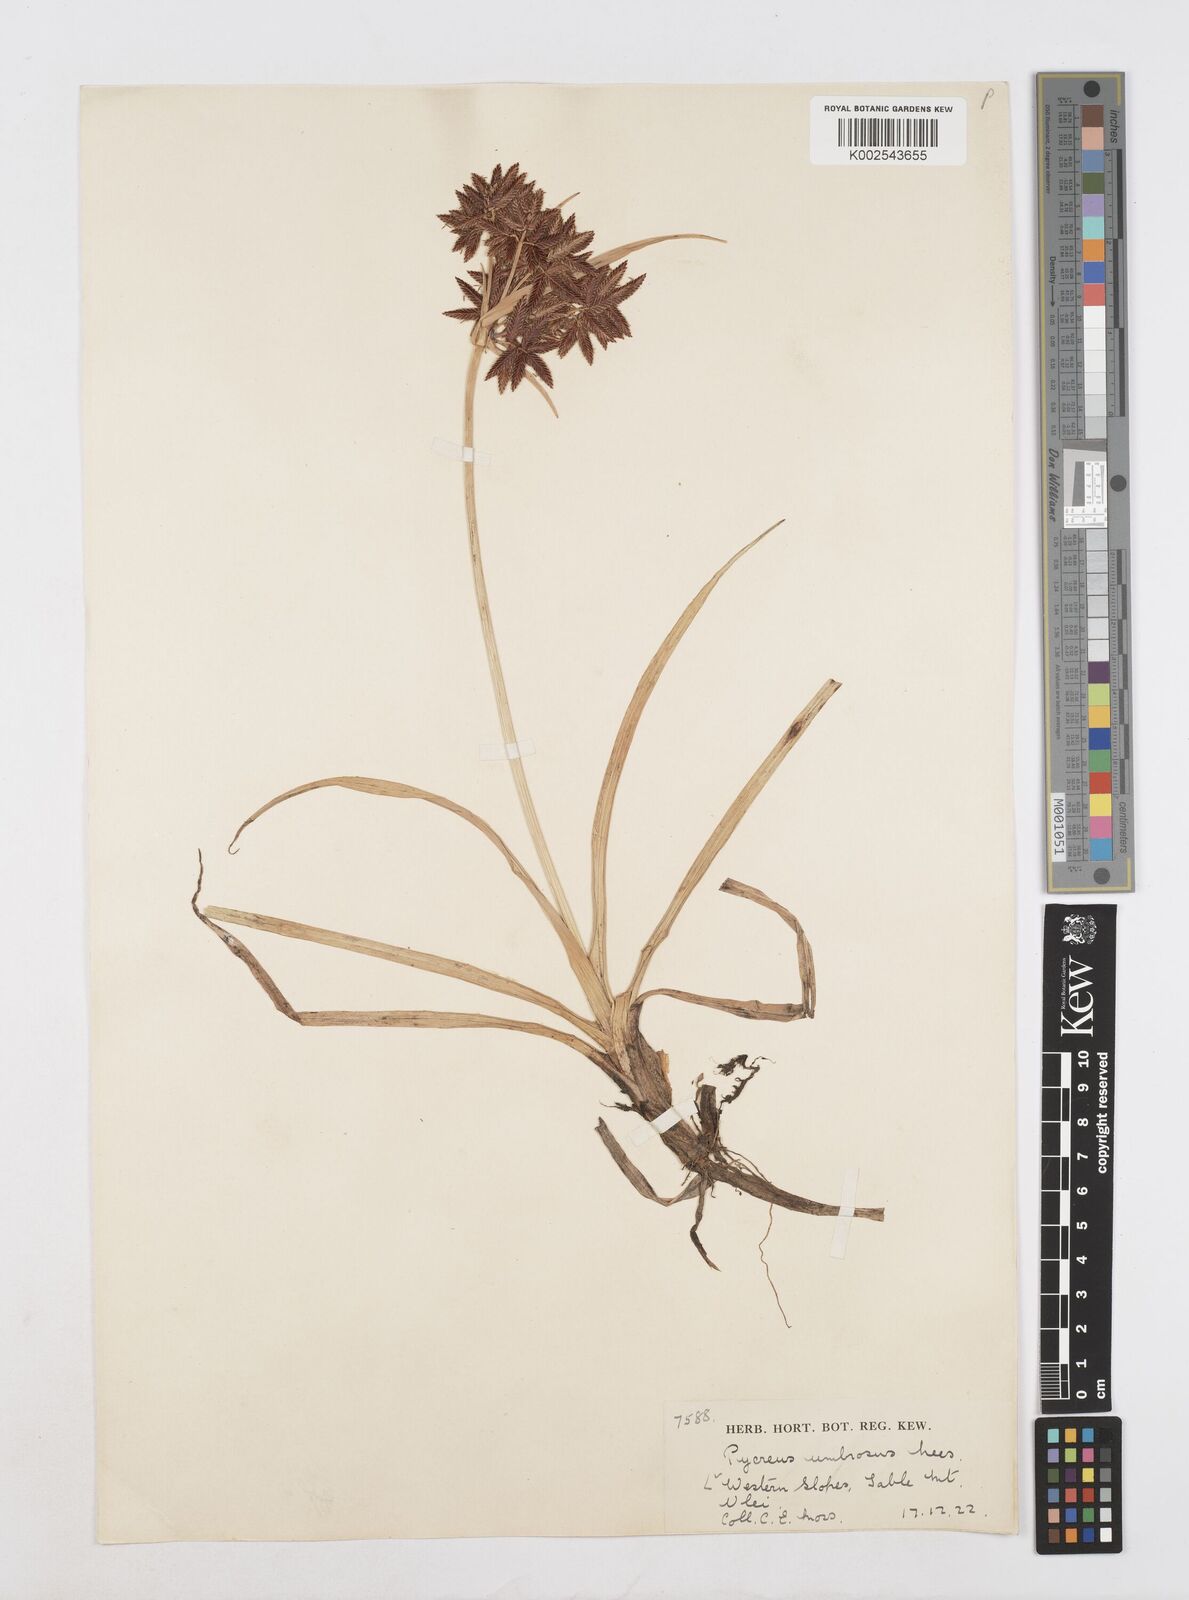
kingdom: Plantae
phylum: Tracheophyta
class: Liliopsida
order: Poales
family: Cyperaceae
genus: Cyperus
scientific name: Cyperus nitidus
